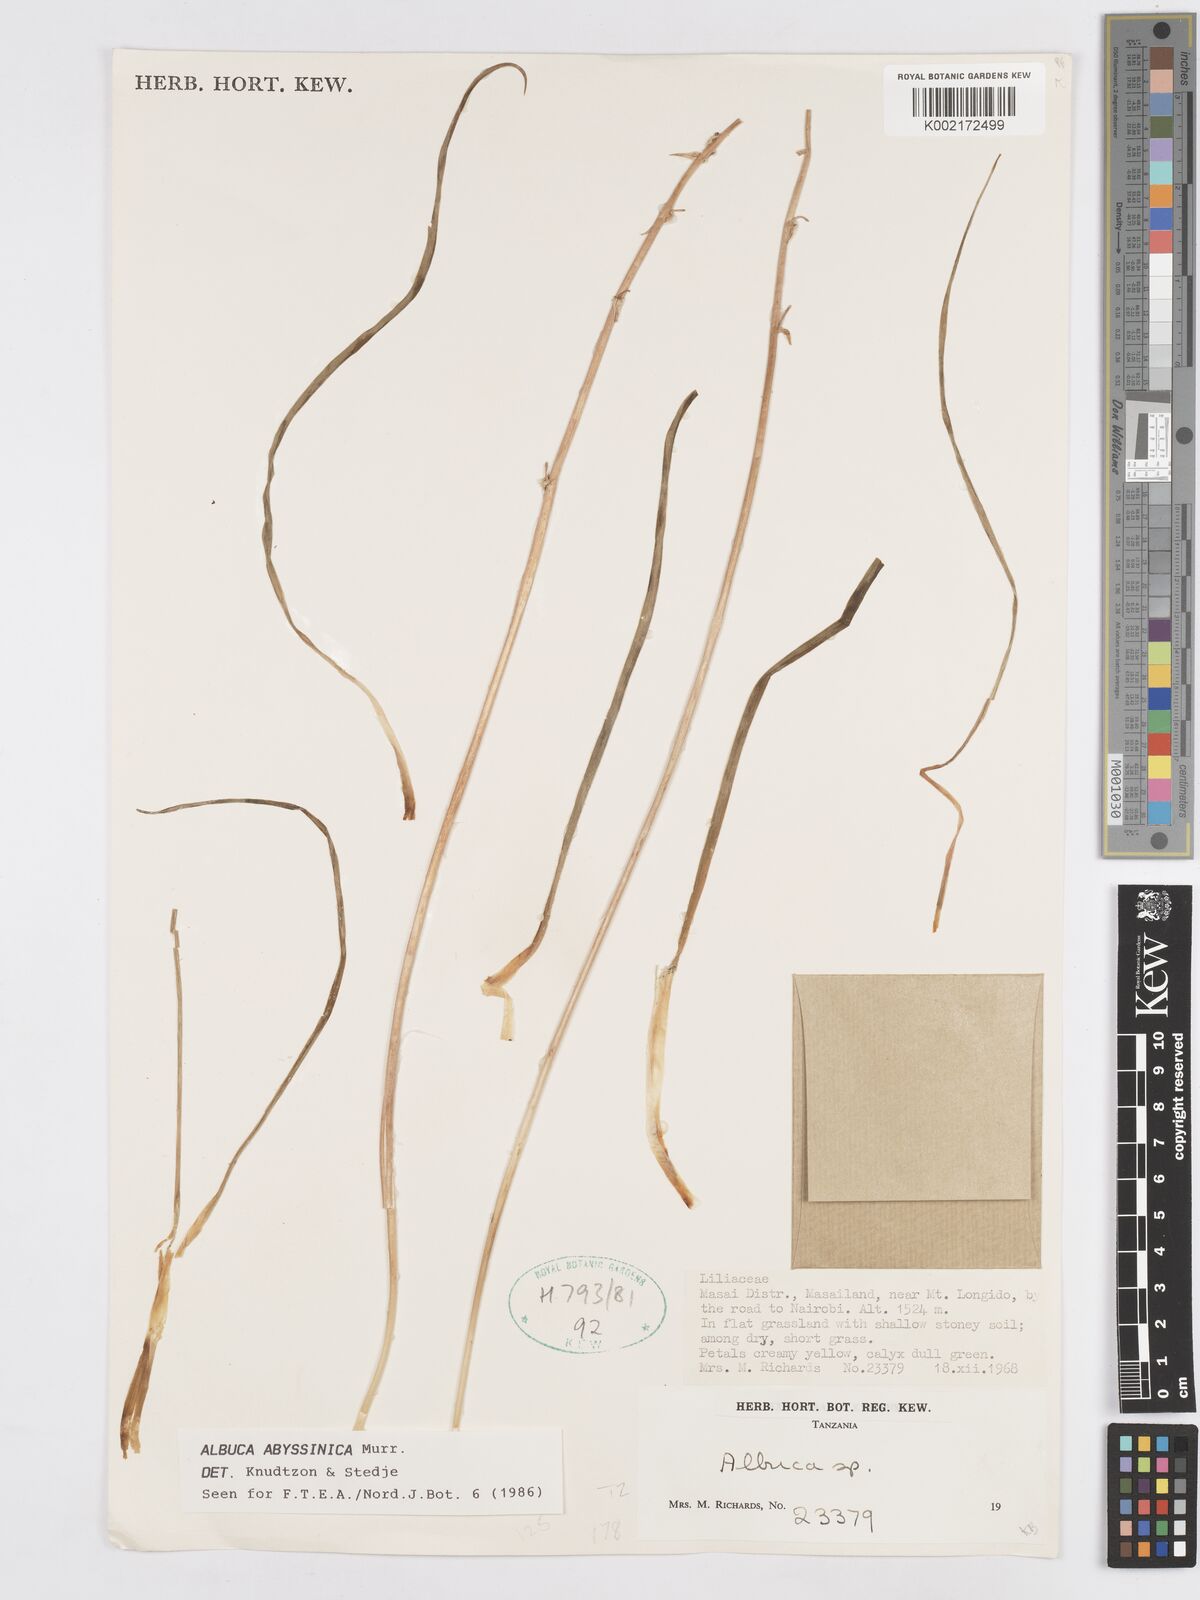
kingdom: Plantae
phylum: Tracheophyta
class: Liliopsida
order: Asparagales
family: Asparagaceae
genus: Albuca
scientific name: Albuca abyssinica
